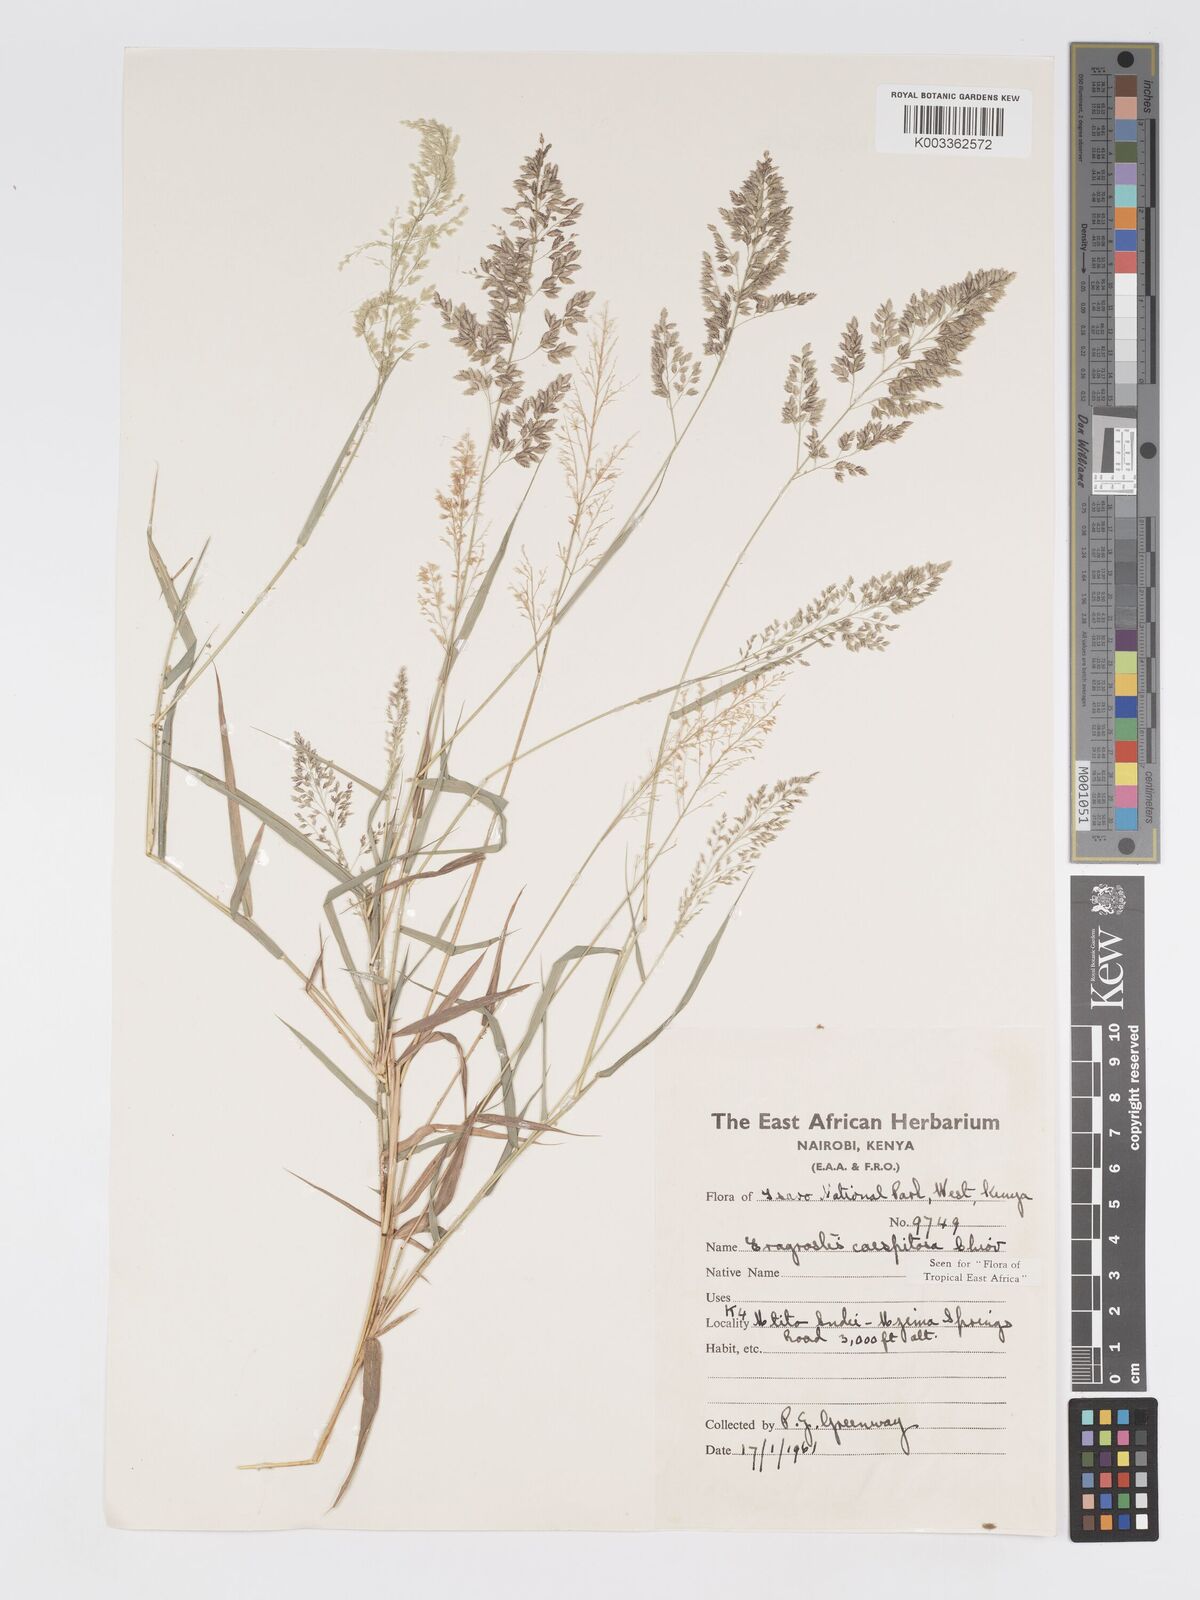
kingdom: Plantae
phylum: Tracheophyta
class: Liliopsida
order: Poales
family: Poaceae
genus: Eragrostis
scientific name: Eragrostis caespitosa
